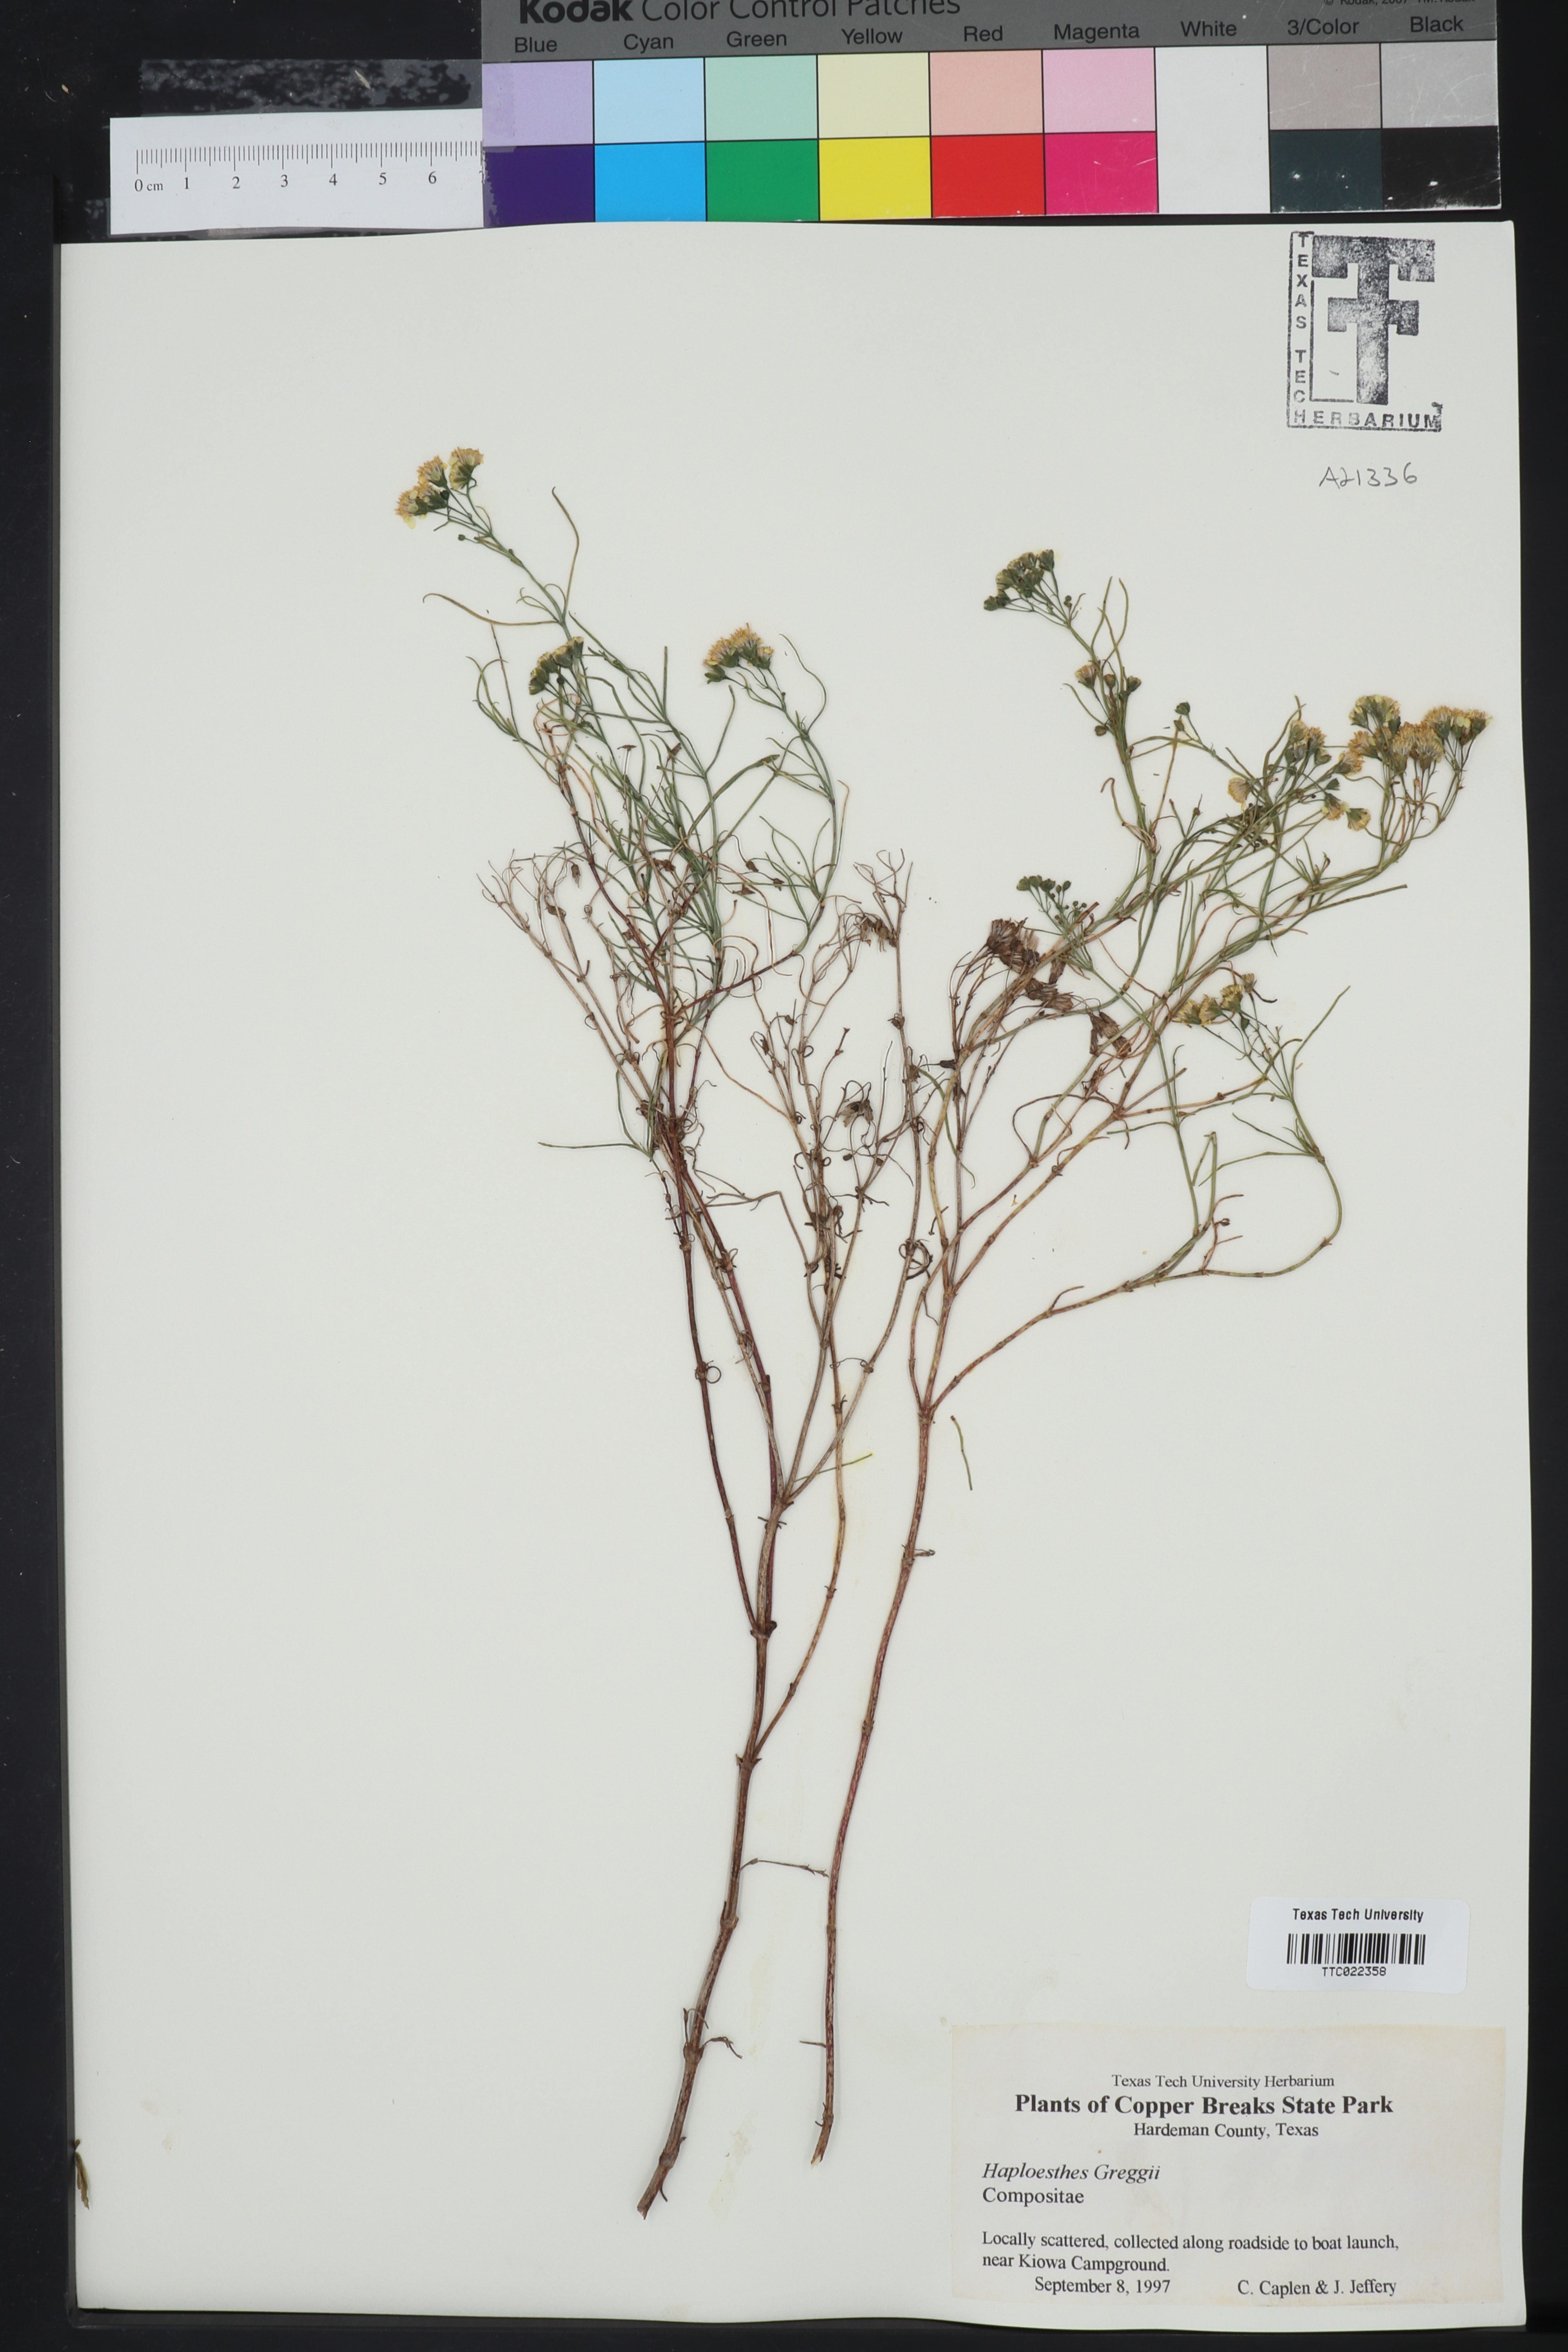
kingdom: Plantae
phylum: Tracheophyta
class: Magnoliopsida
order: Asterales
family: Asteraceae
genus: Haploesthes
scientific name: Haploesthes greggii
